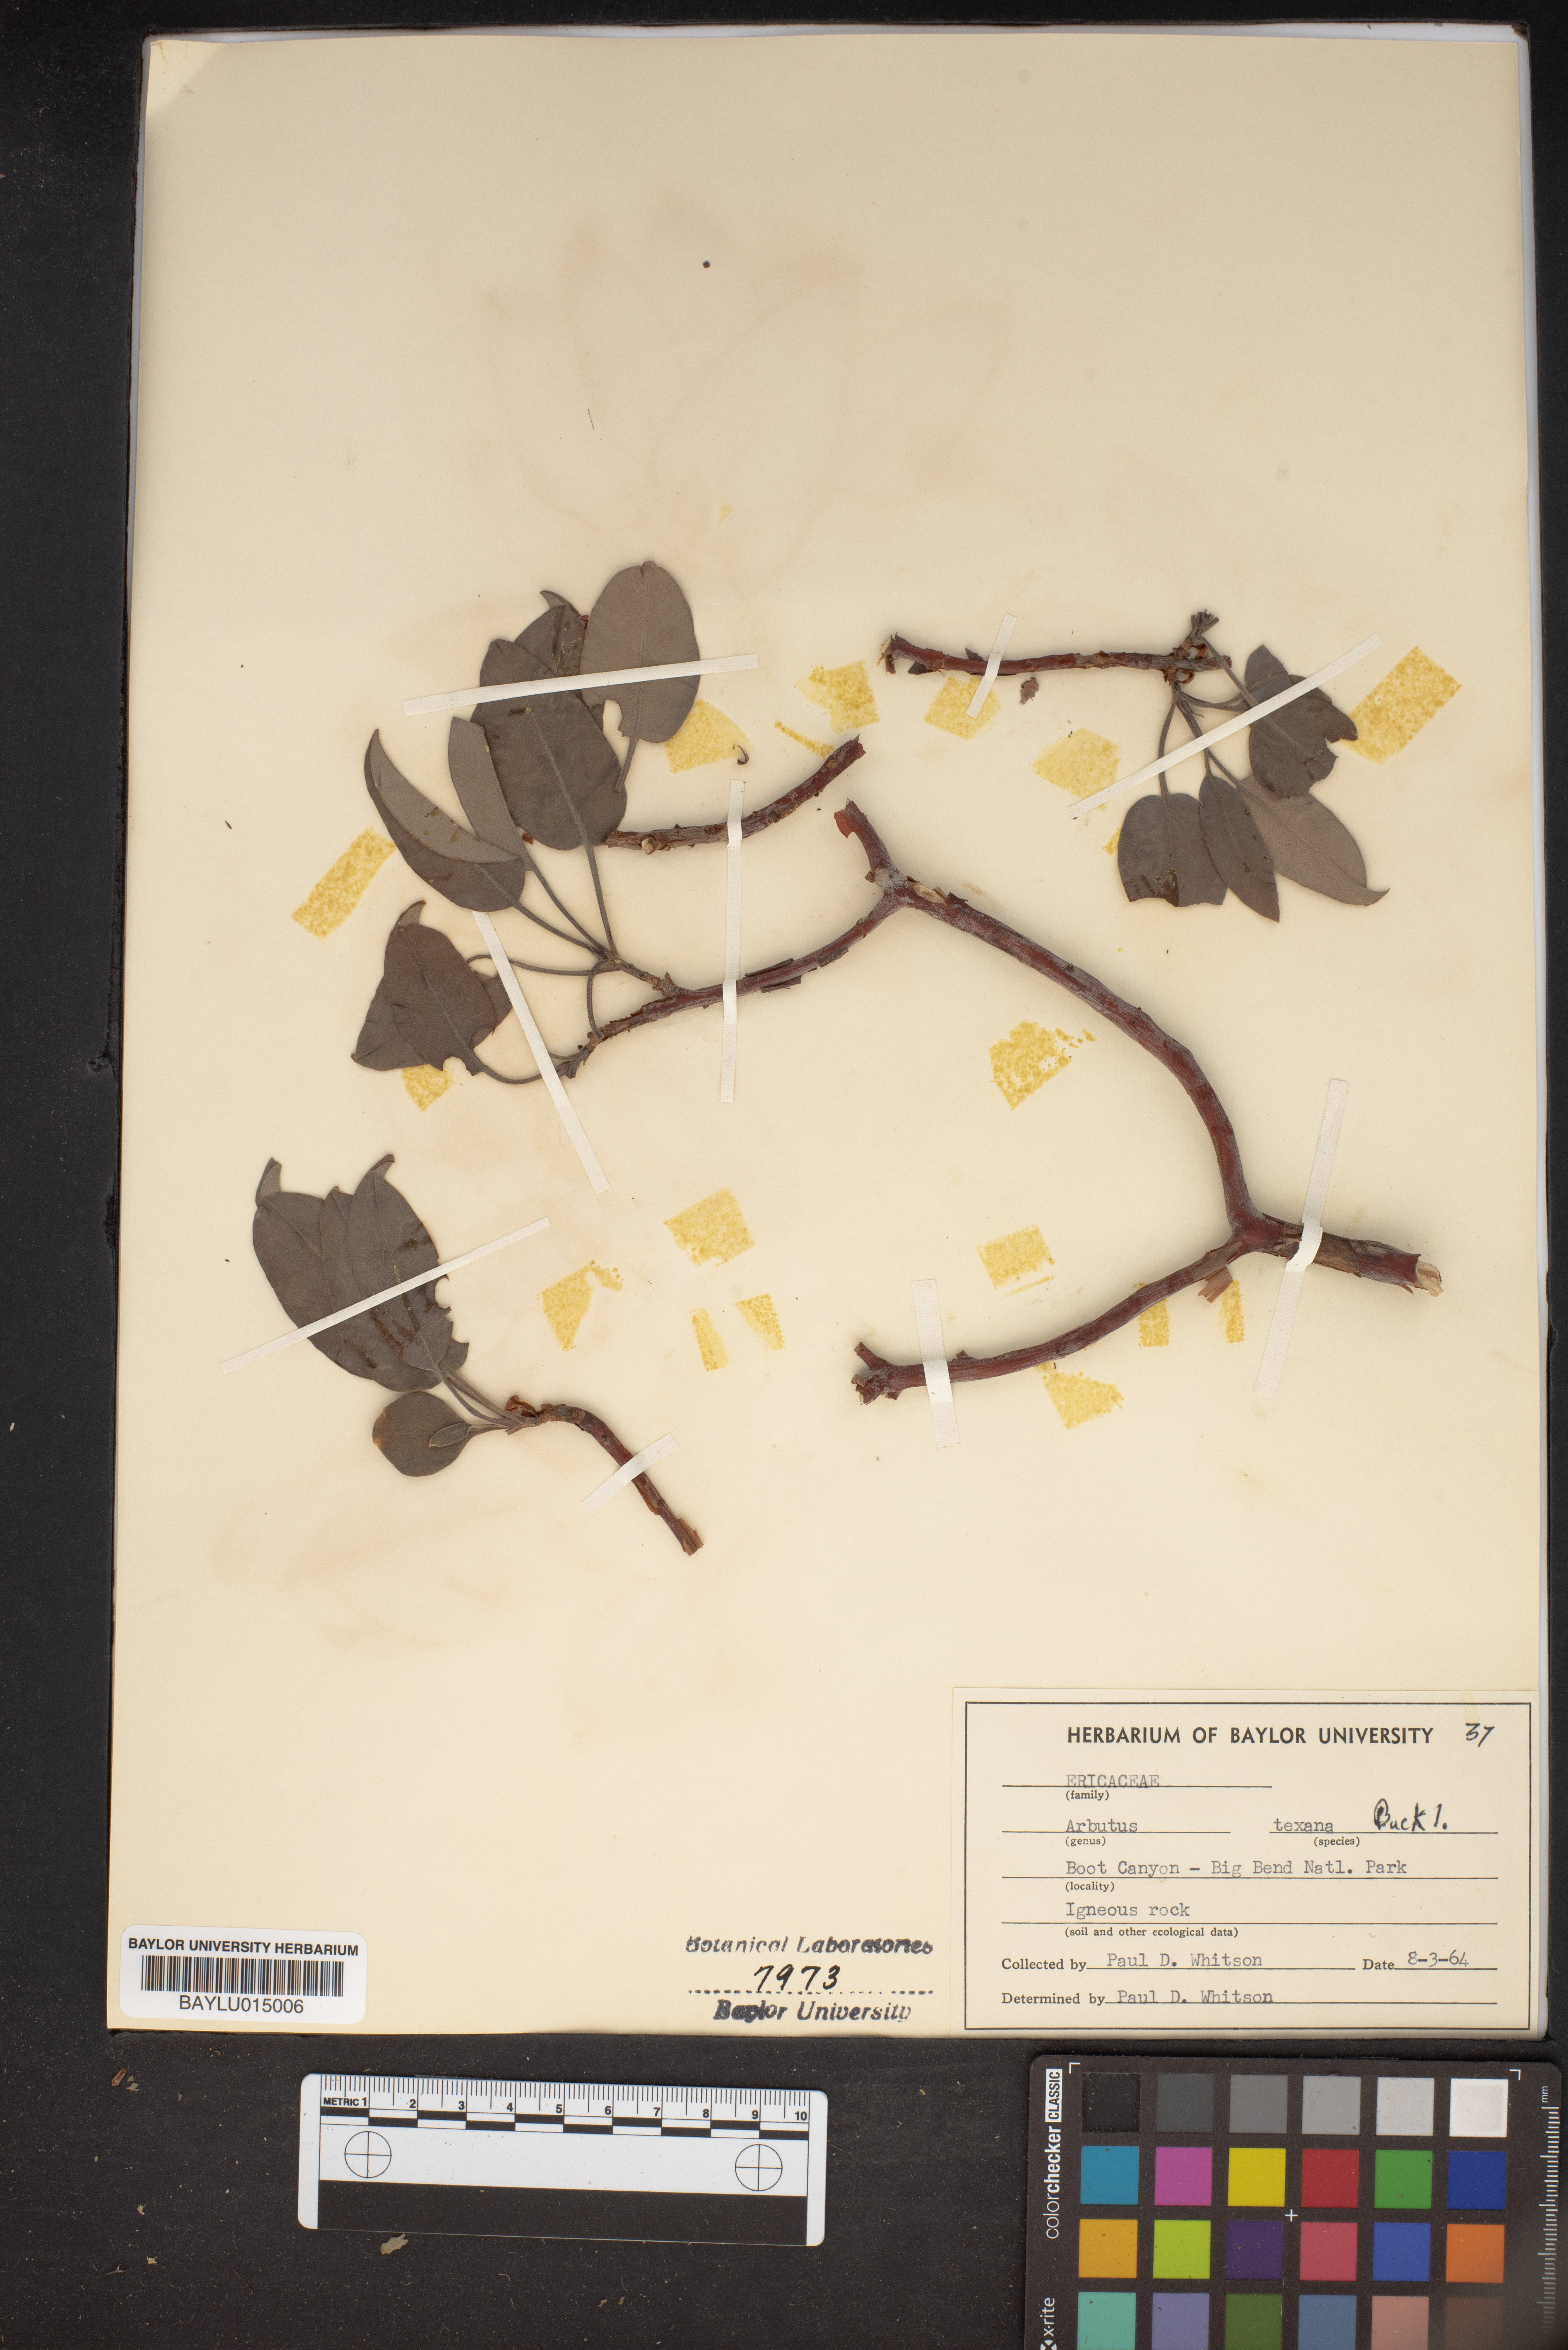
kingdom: Plantae
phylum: Tracheophyta
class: Magnoliopsida
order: Ericales
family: Ericaceae
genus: Arbutus
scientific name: Arbutus xalapensis
